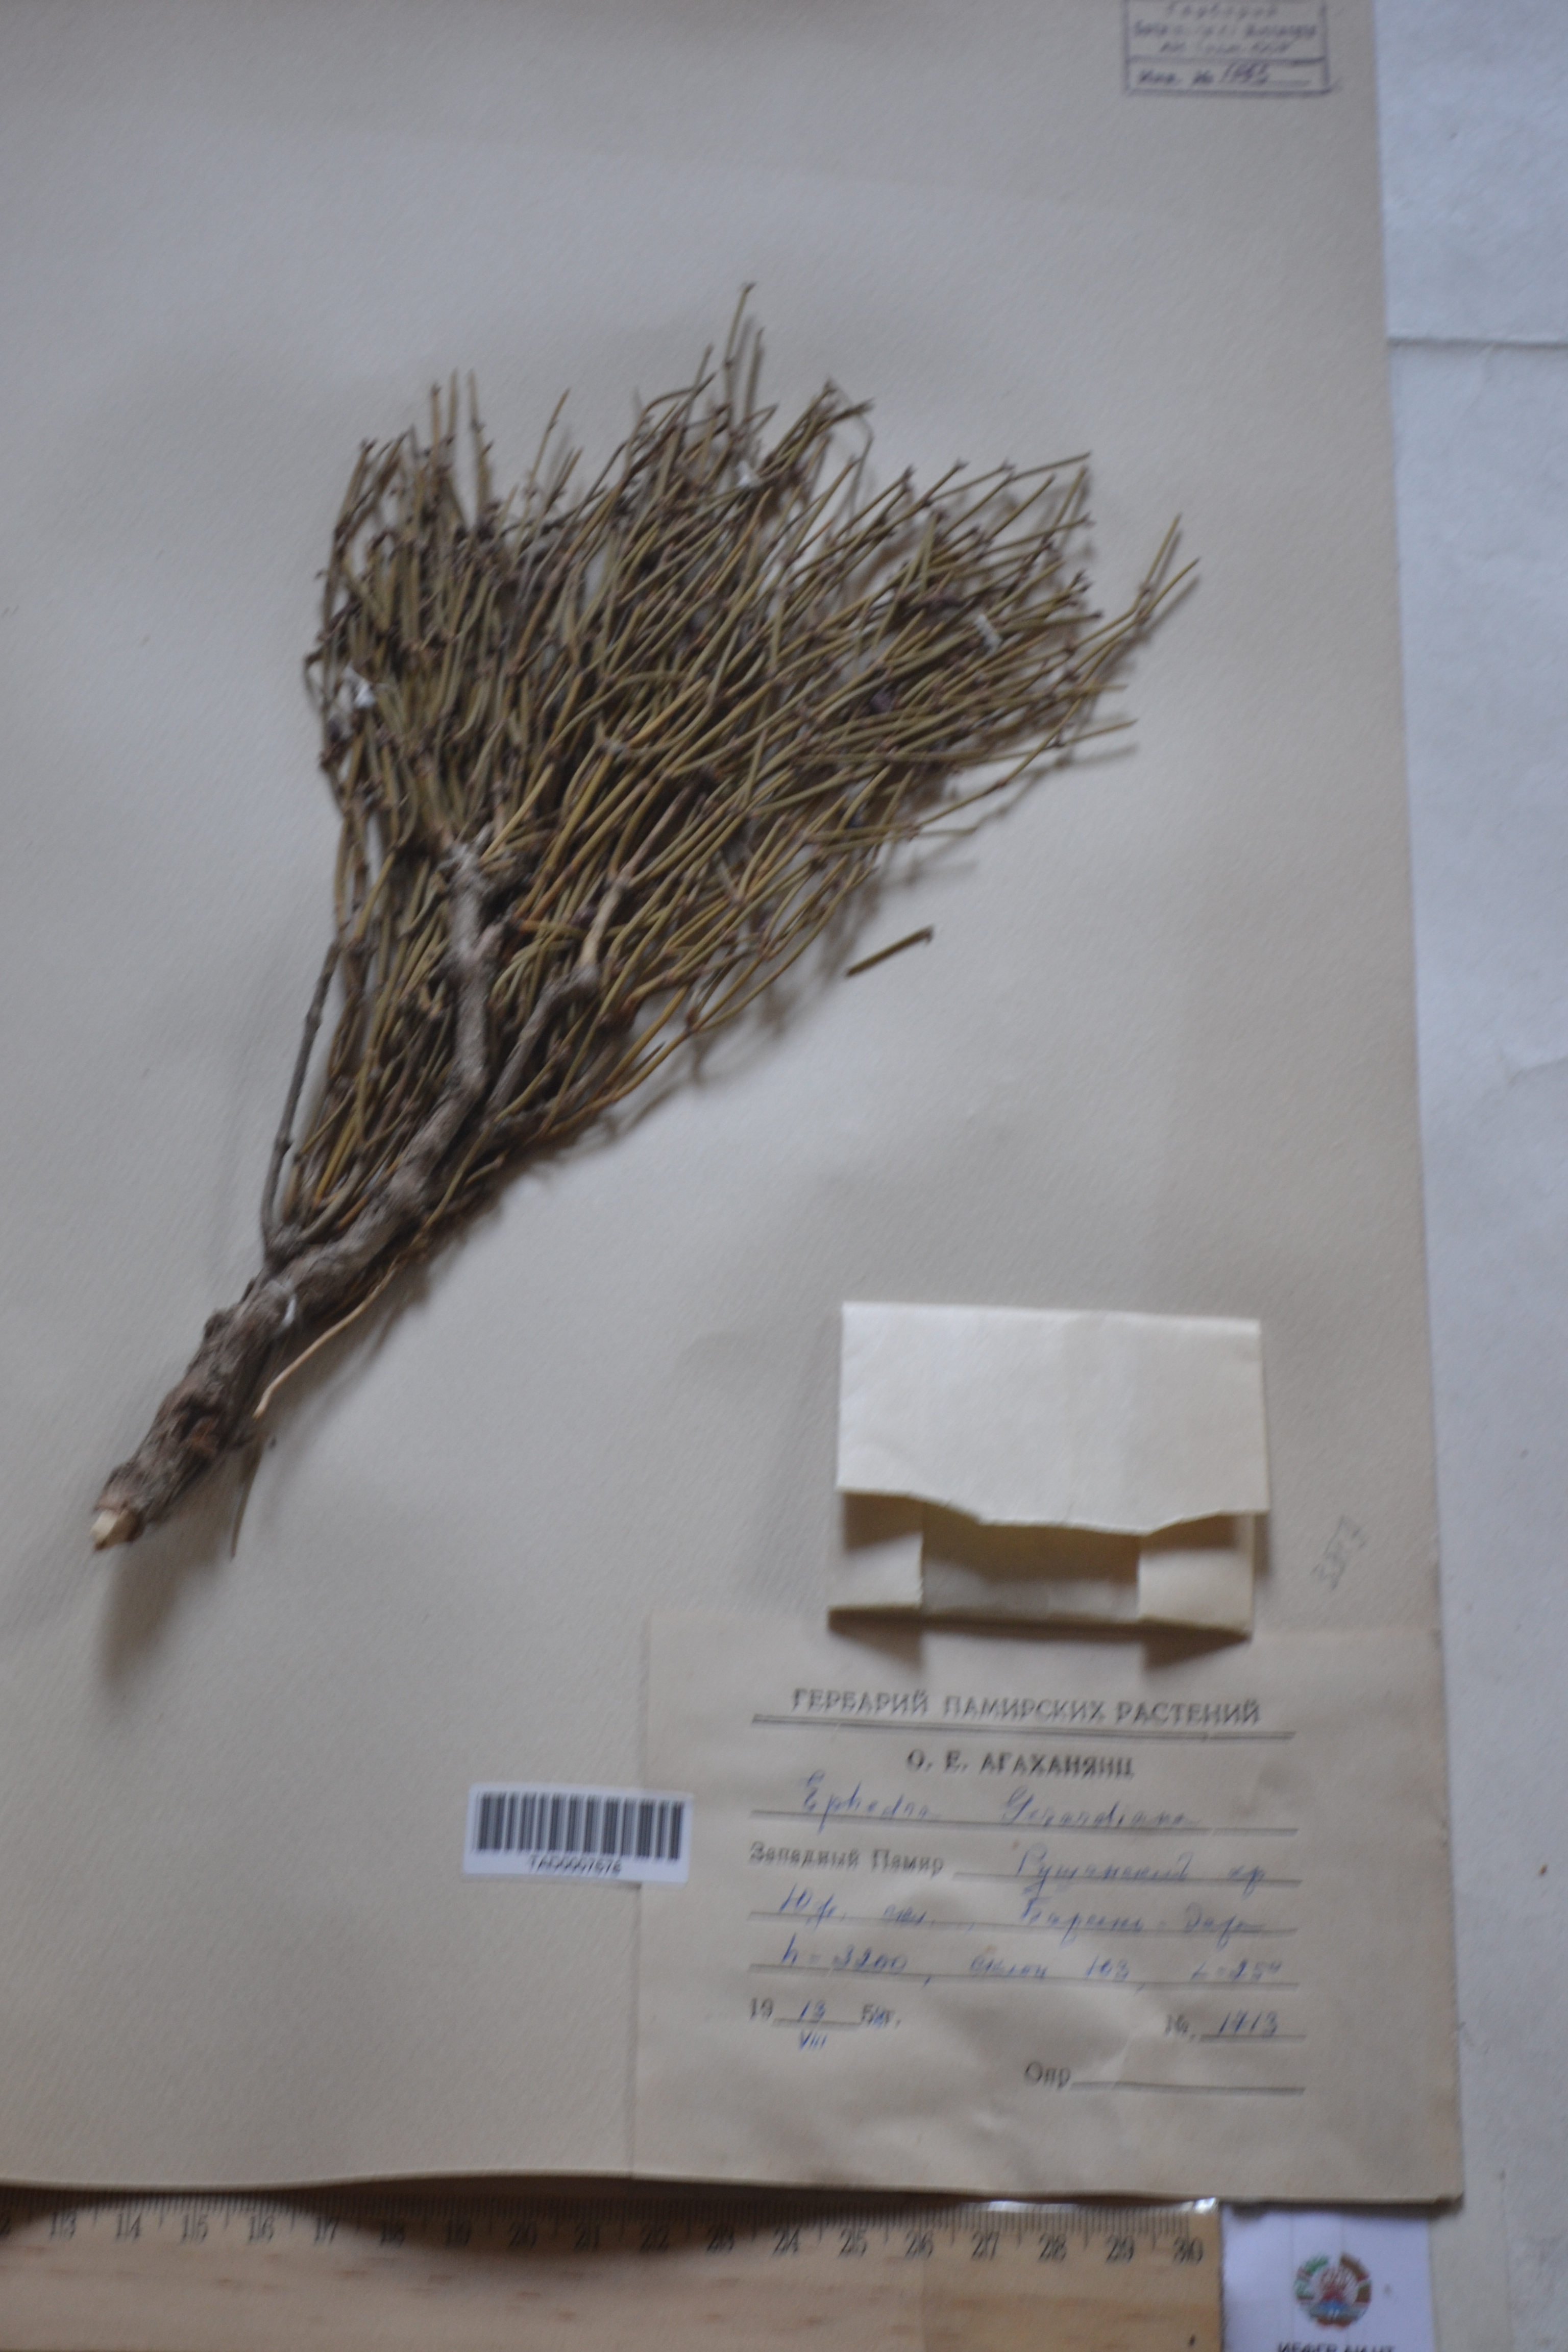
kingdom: Plantae
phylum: Tracheophyta
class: Gnetopsida
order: Ephedrales
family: Ephedraceae
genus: Ephedra
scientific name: Ephedra gerardiana
